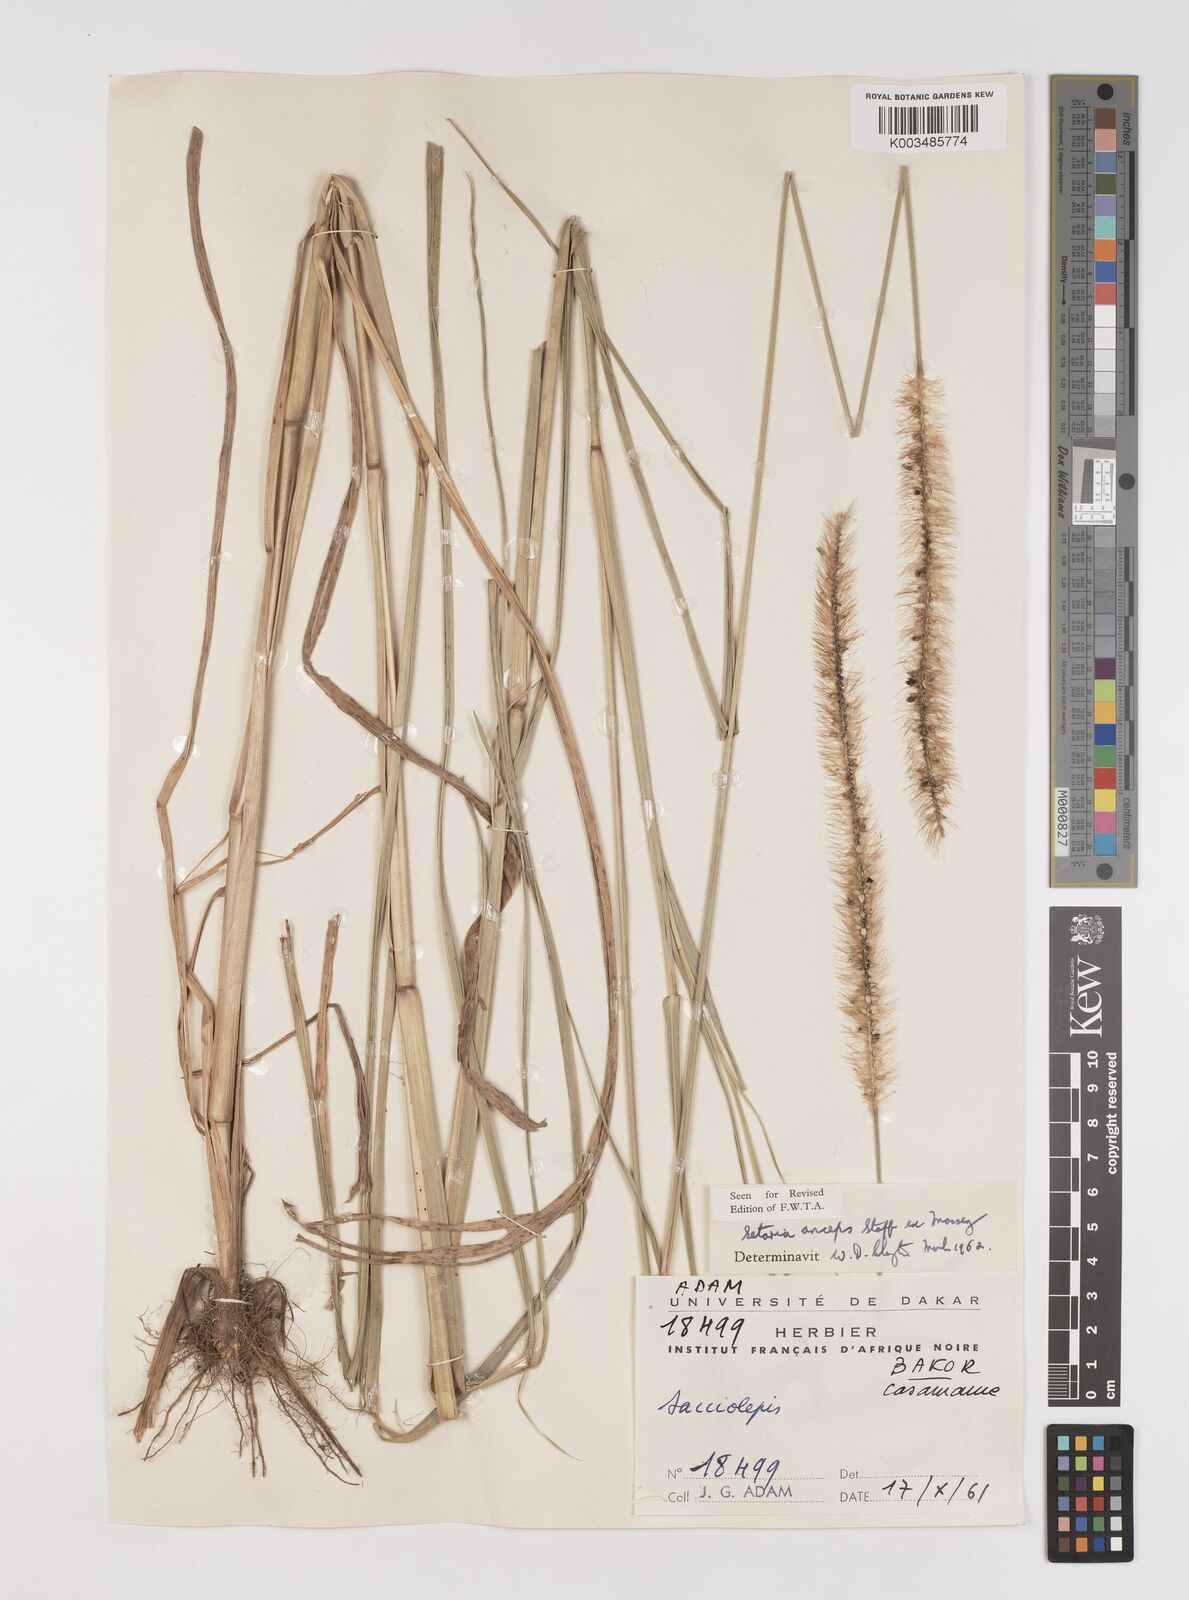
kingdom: Plantae
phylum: Tracheophyta
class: Liliopsida
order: Poales
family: Poaceae
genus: Setaria
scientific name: Setaria sphacelata
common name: African bristlegrass
